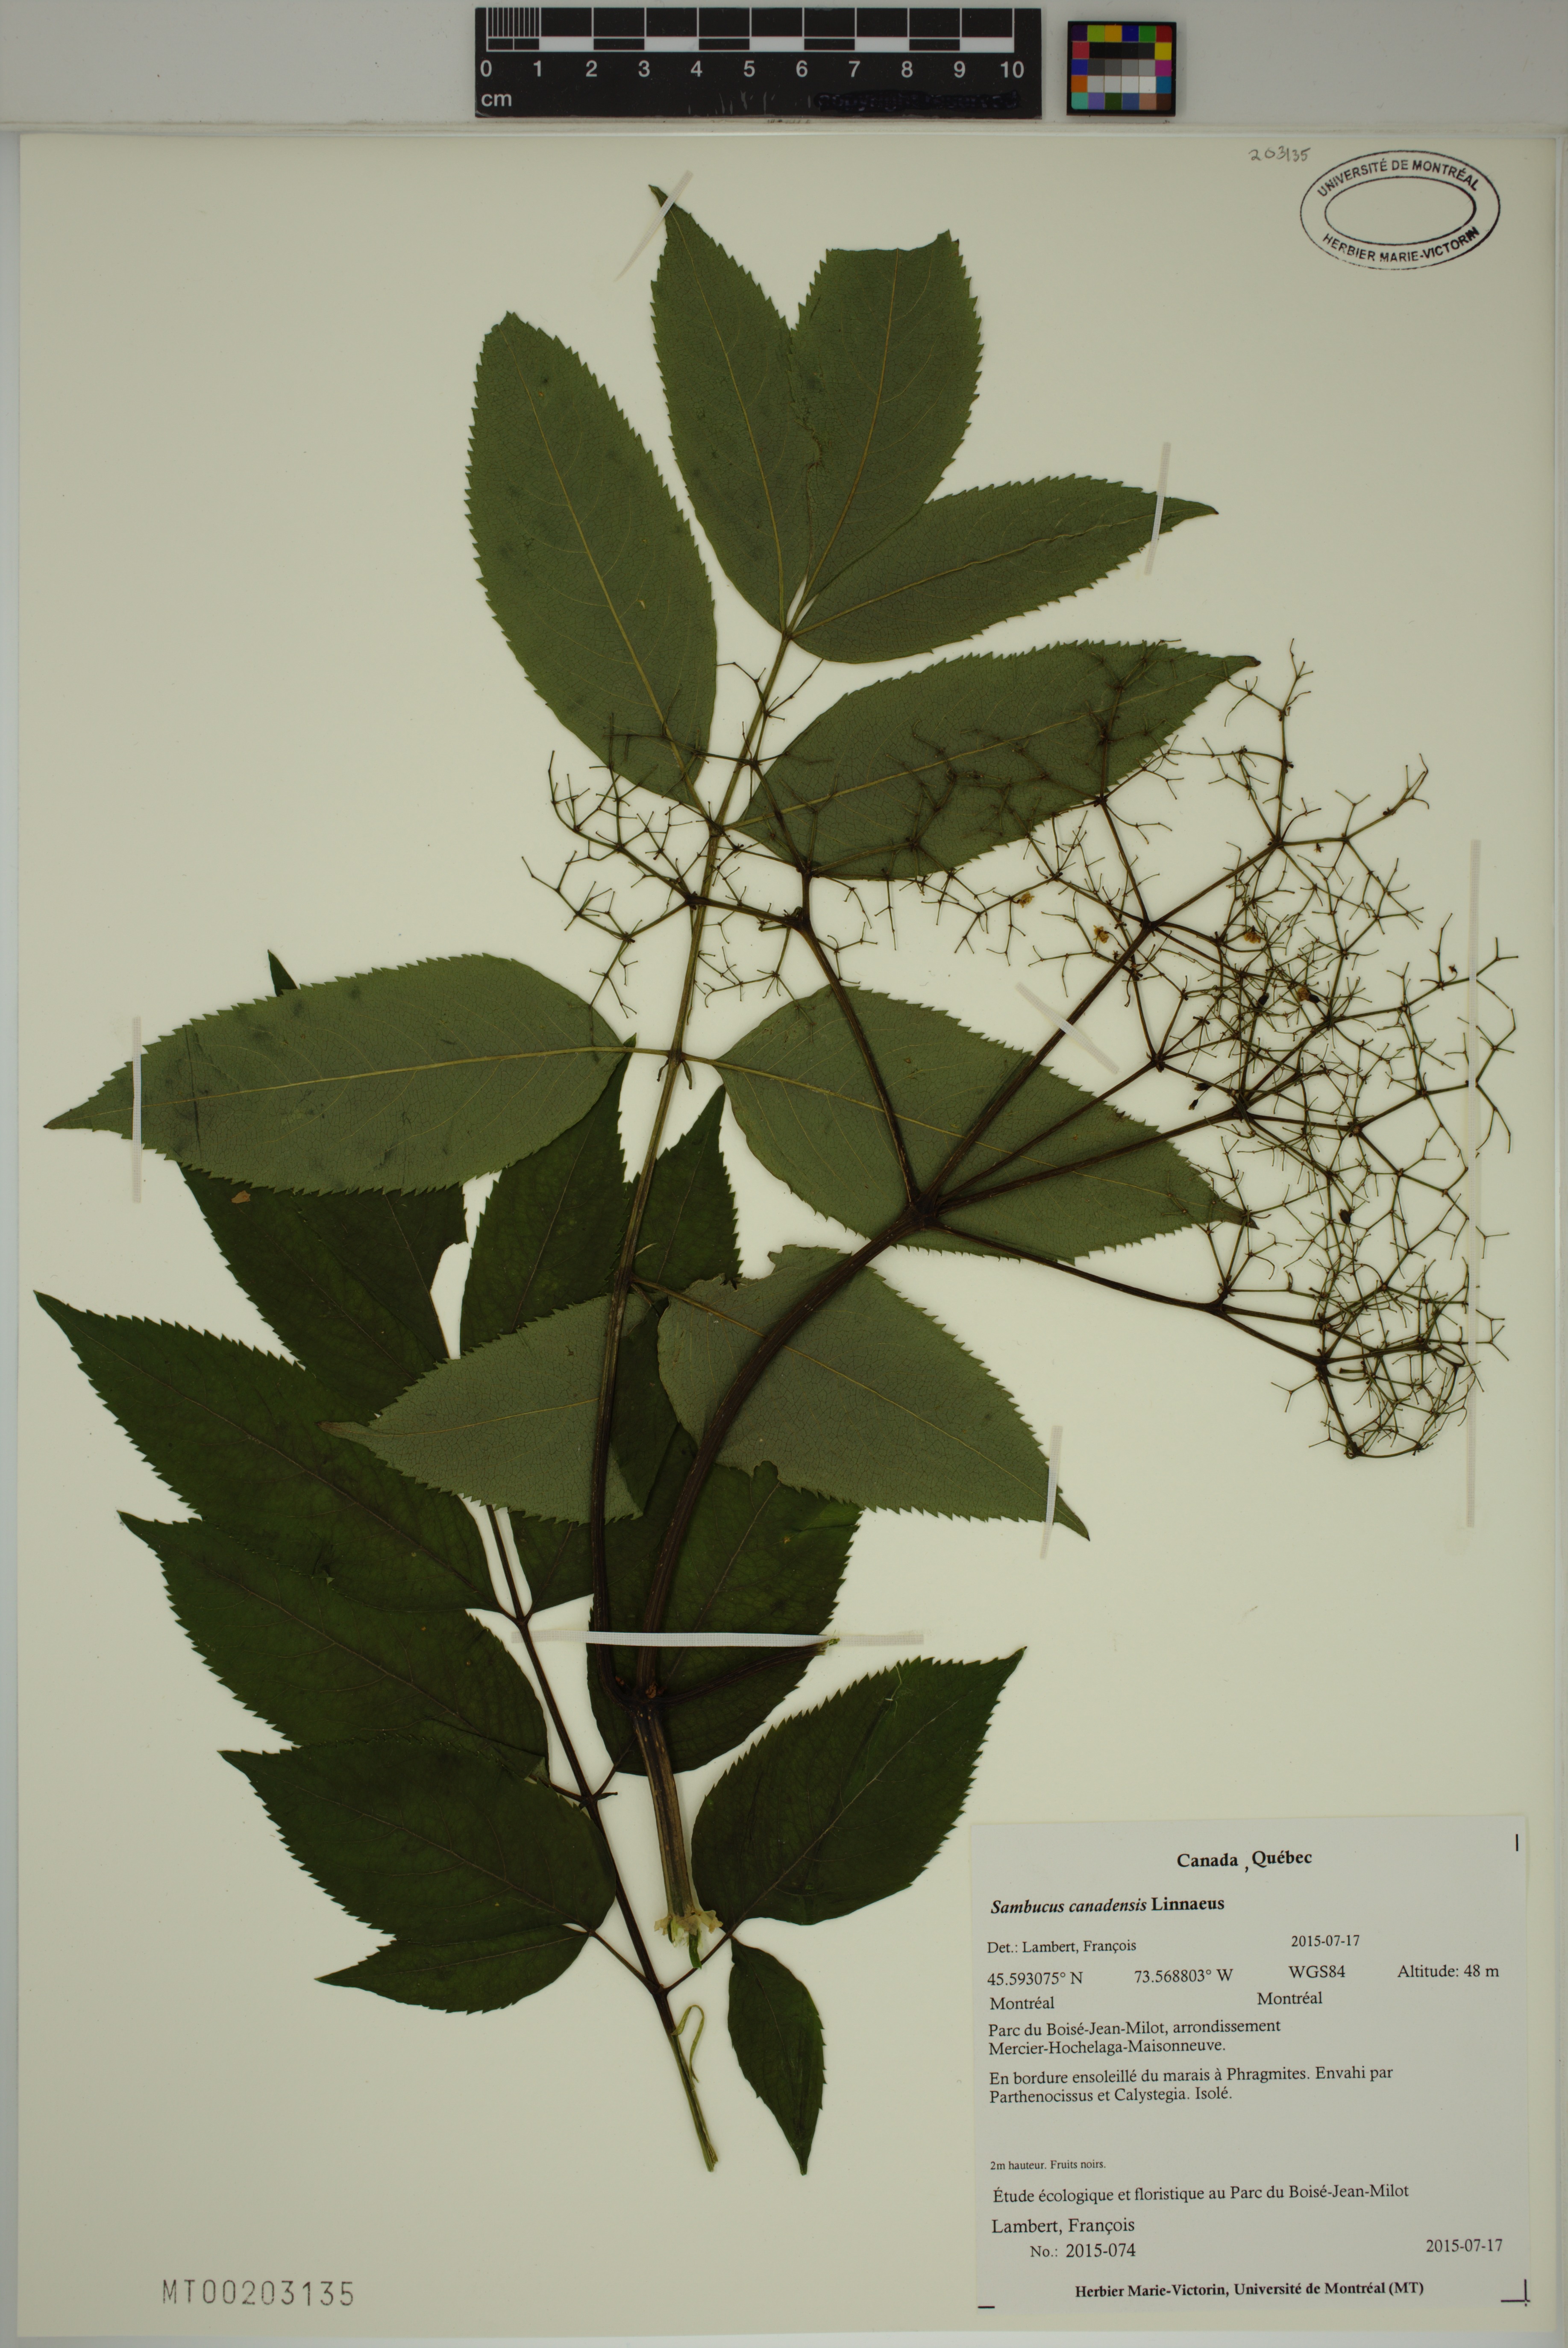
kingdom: Plantae
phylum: Tracheophyta
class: Magnoliopsida
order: Dipsacales
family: Viburnaceae
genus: Sambucus
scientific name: Sambucus canadensis
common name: American elder
